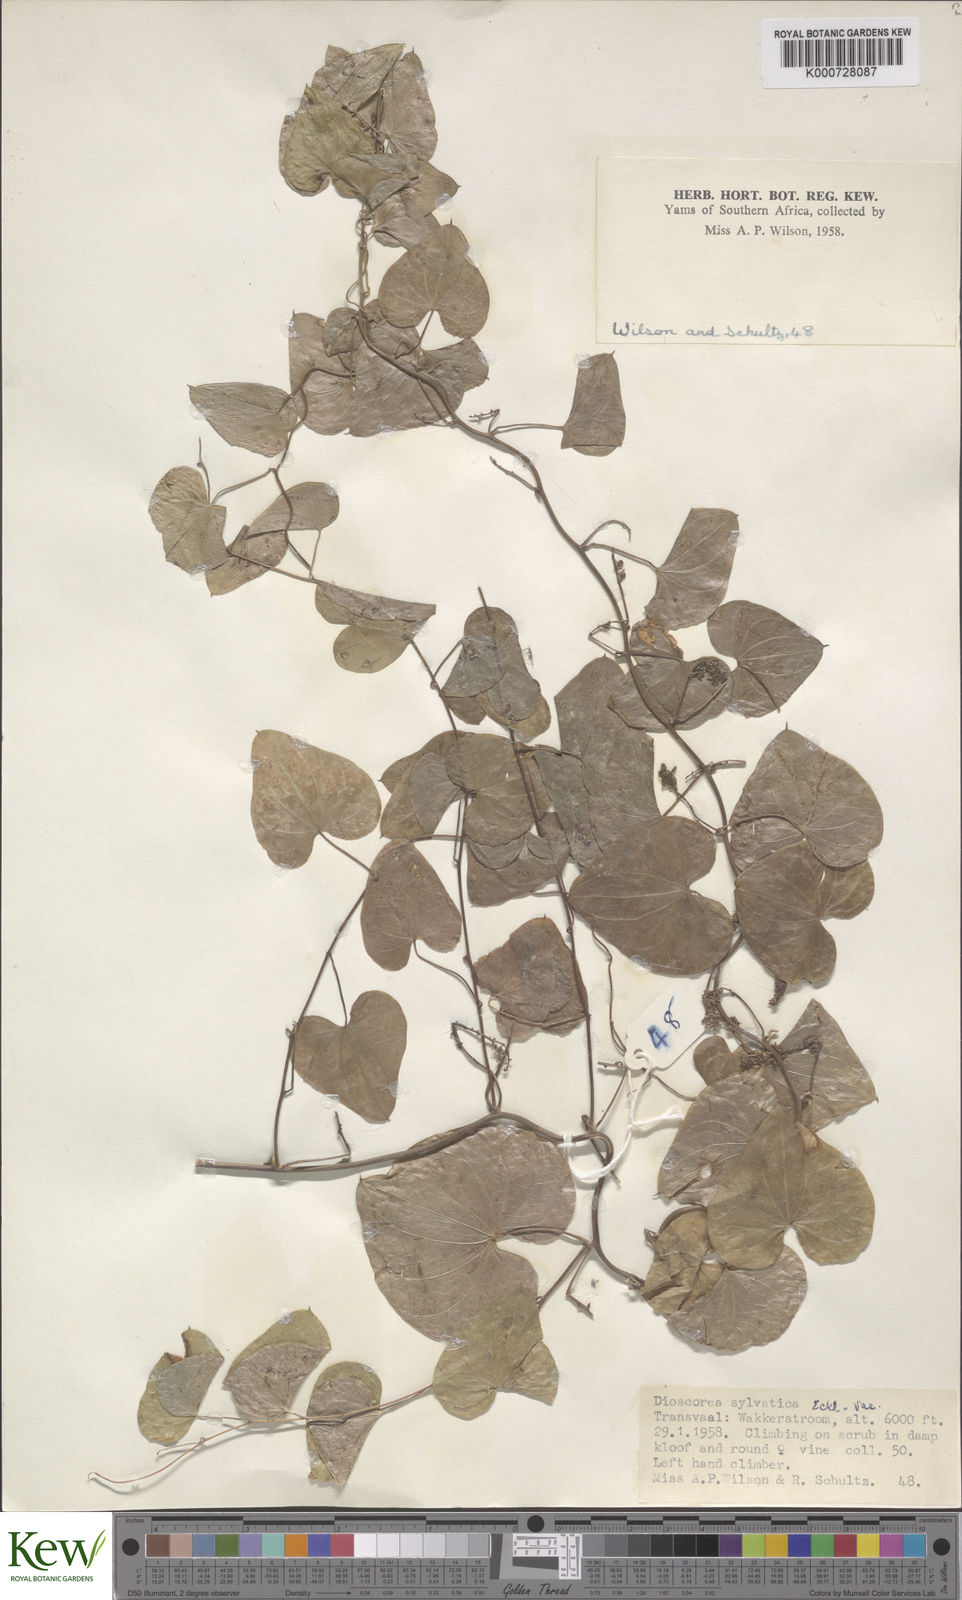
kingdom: Plantae
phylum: Tracheophyta
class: Liliopsida
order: Dioscoreales
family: Dioscoreaceae
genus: Dioscorea
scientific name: Dioscorea sylvatica
